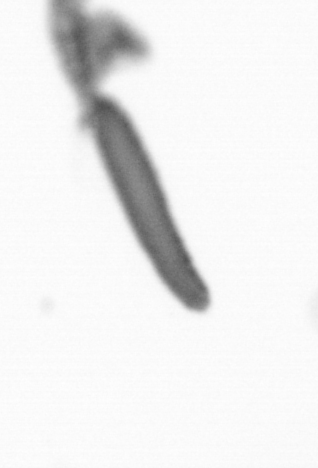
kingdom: Animalia
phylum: Arthropoda
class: Copepoda
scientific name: Copepoda
